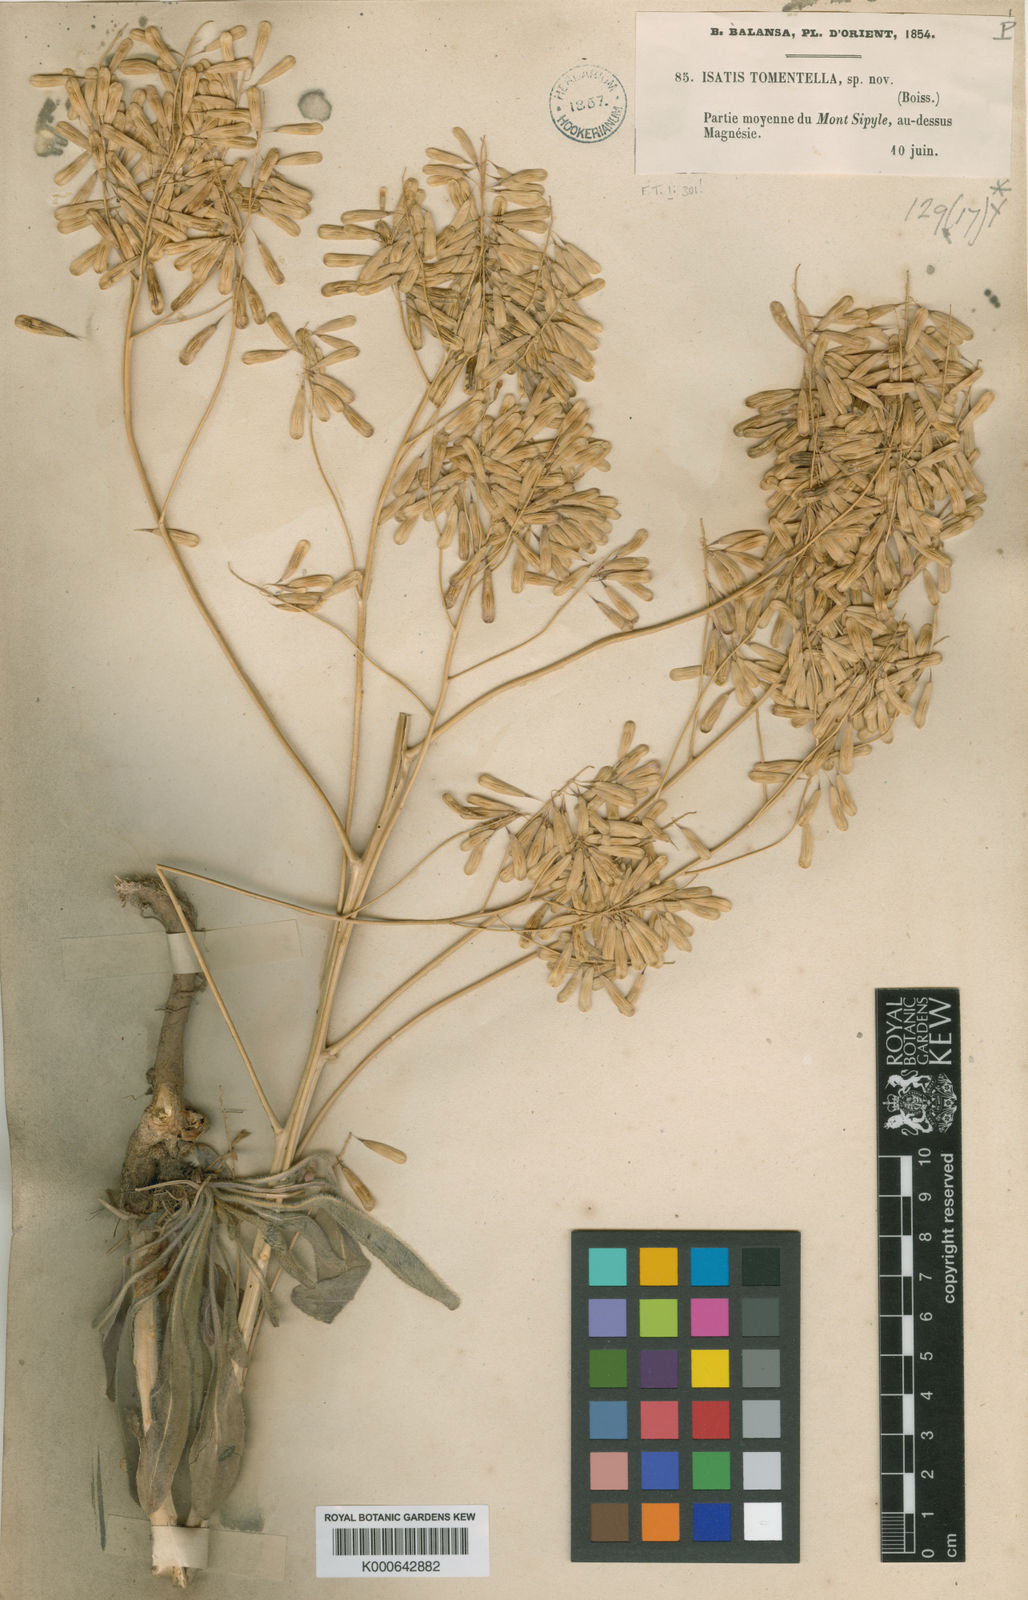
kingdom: Plantae
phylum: Tracheophyta
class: Magnoliopsida
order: Brassicales
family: Brassicaceae
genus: Isatis
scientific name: Isatis tinctoria
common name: Woad
